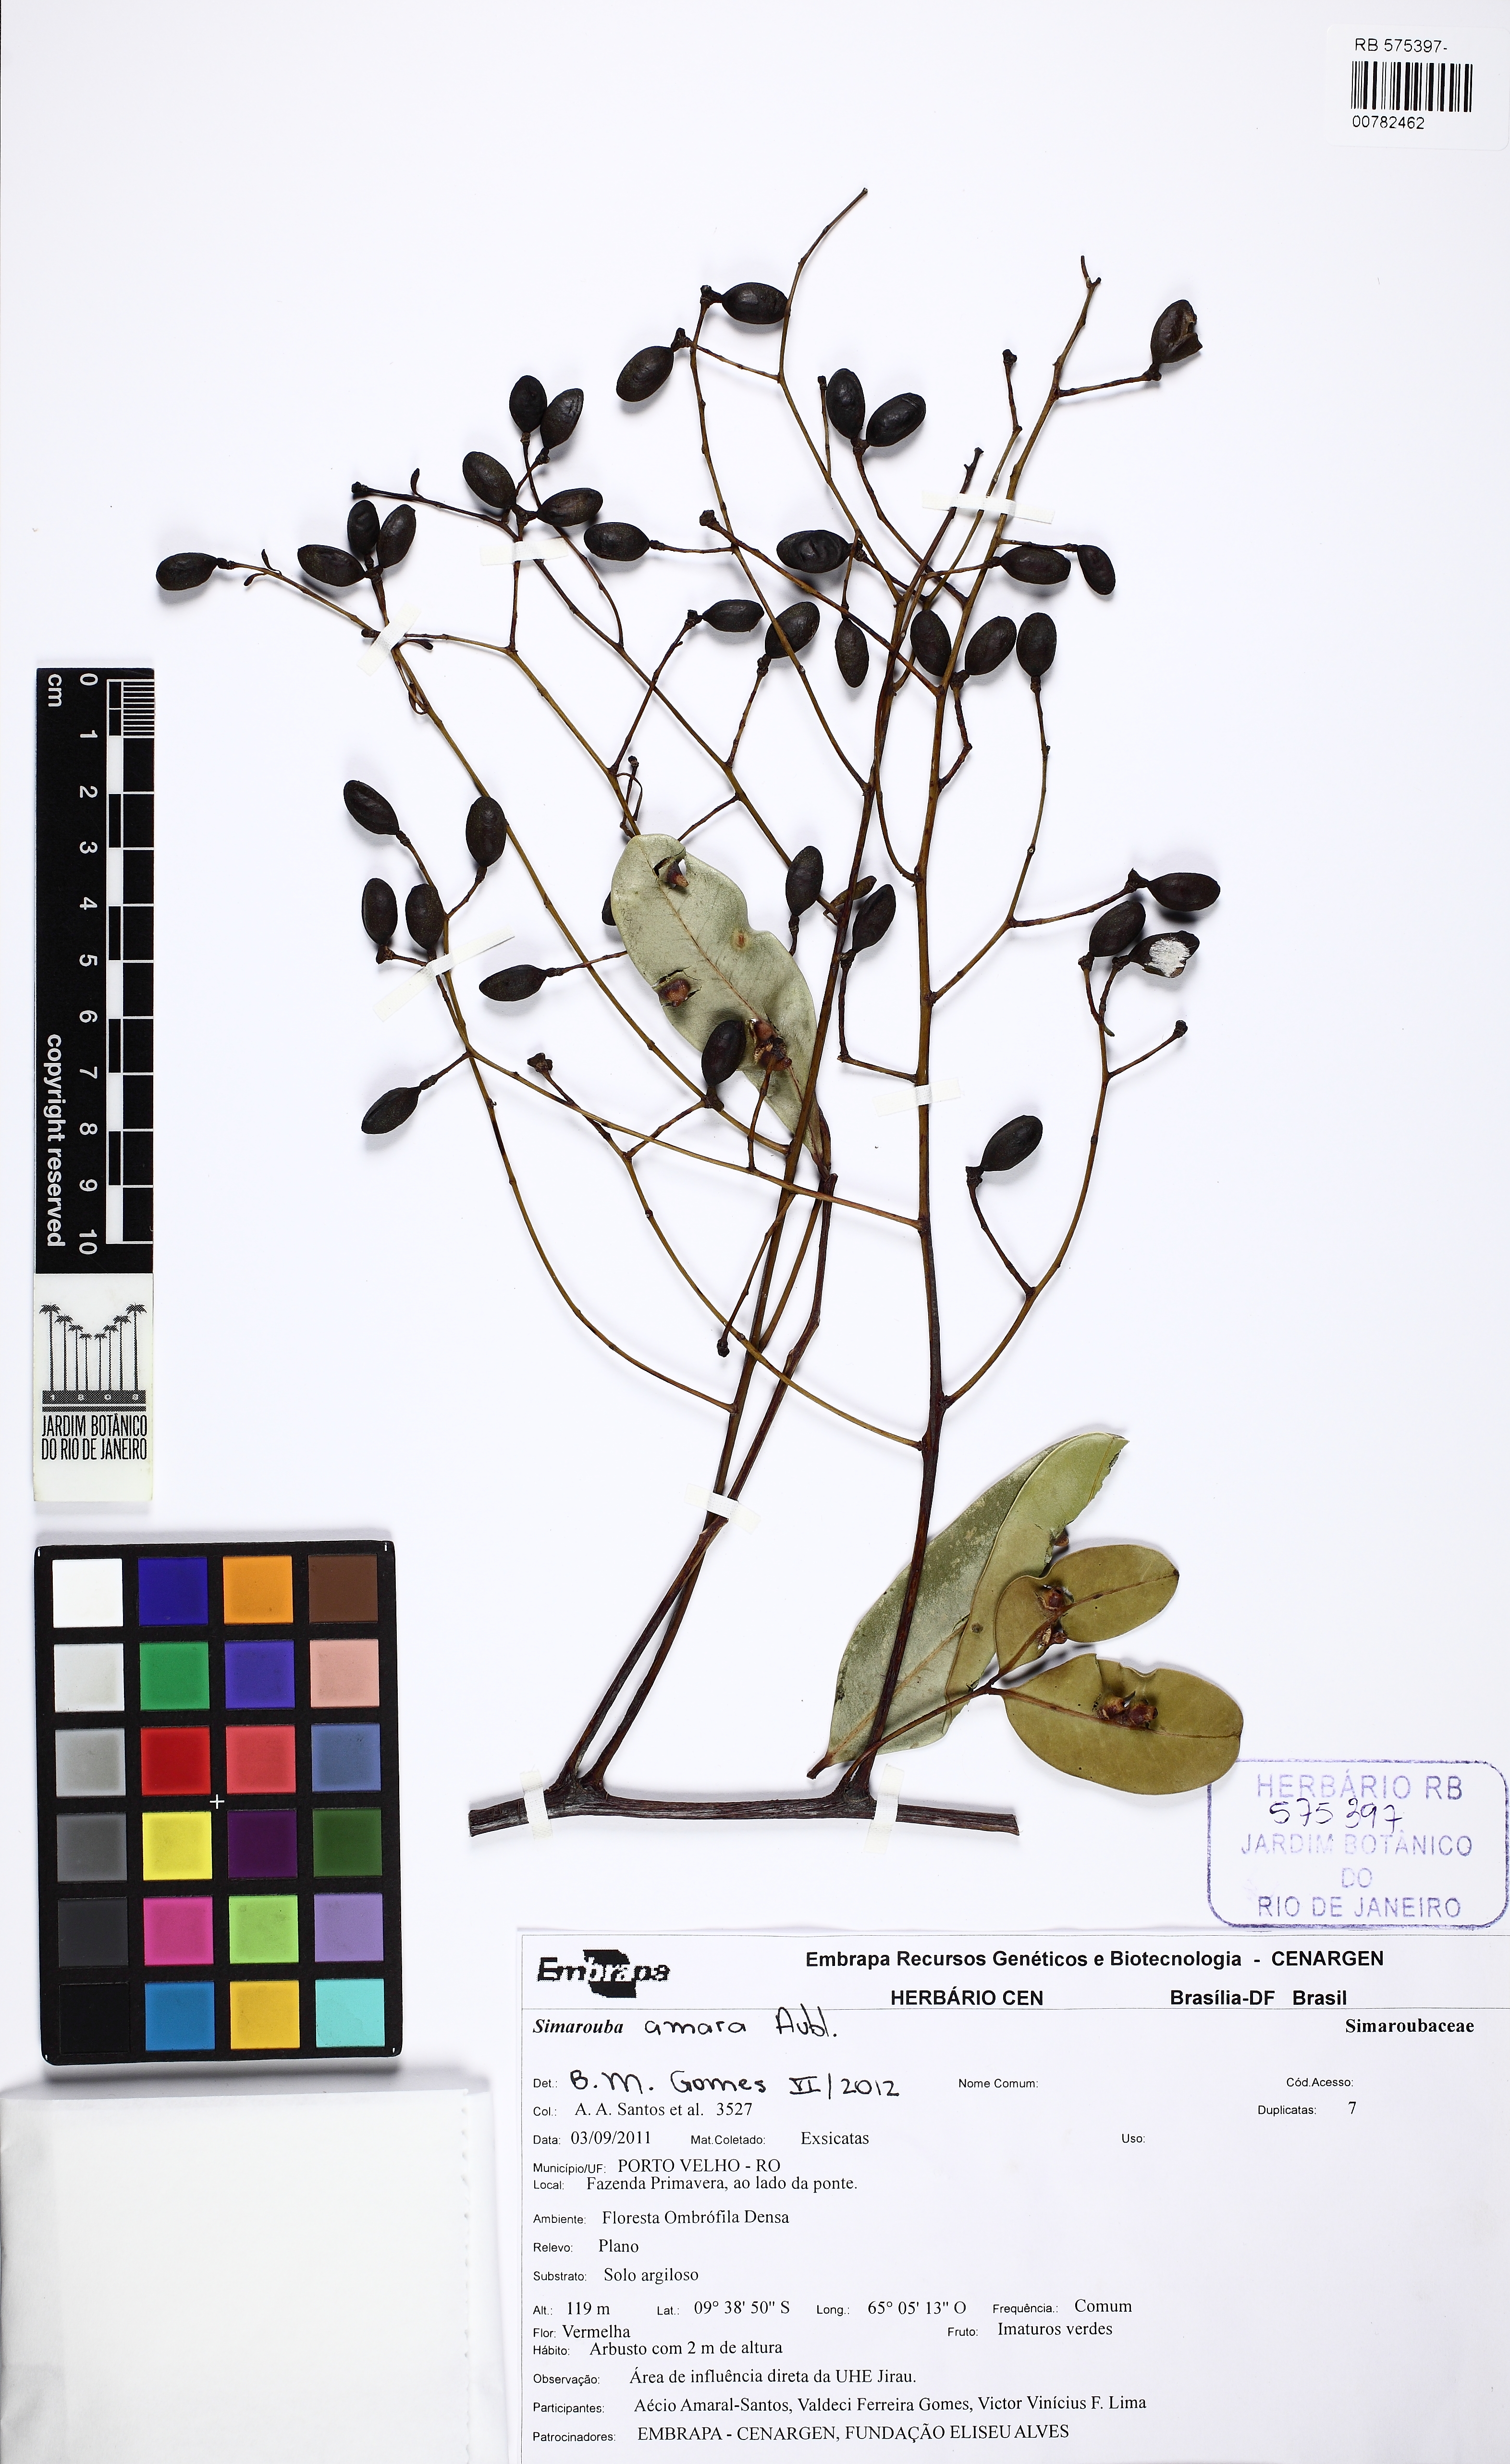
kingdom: Plantae
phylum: Tracheophyta
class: Magnoliopsida
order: Sapindales
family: Simaroubaceae
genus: Simarouba
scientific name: Simarouba amara
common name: Bitterwood
